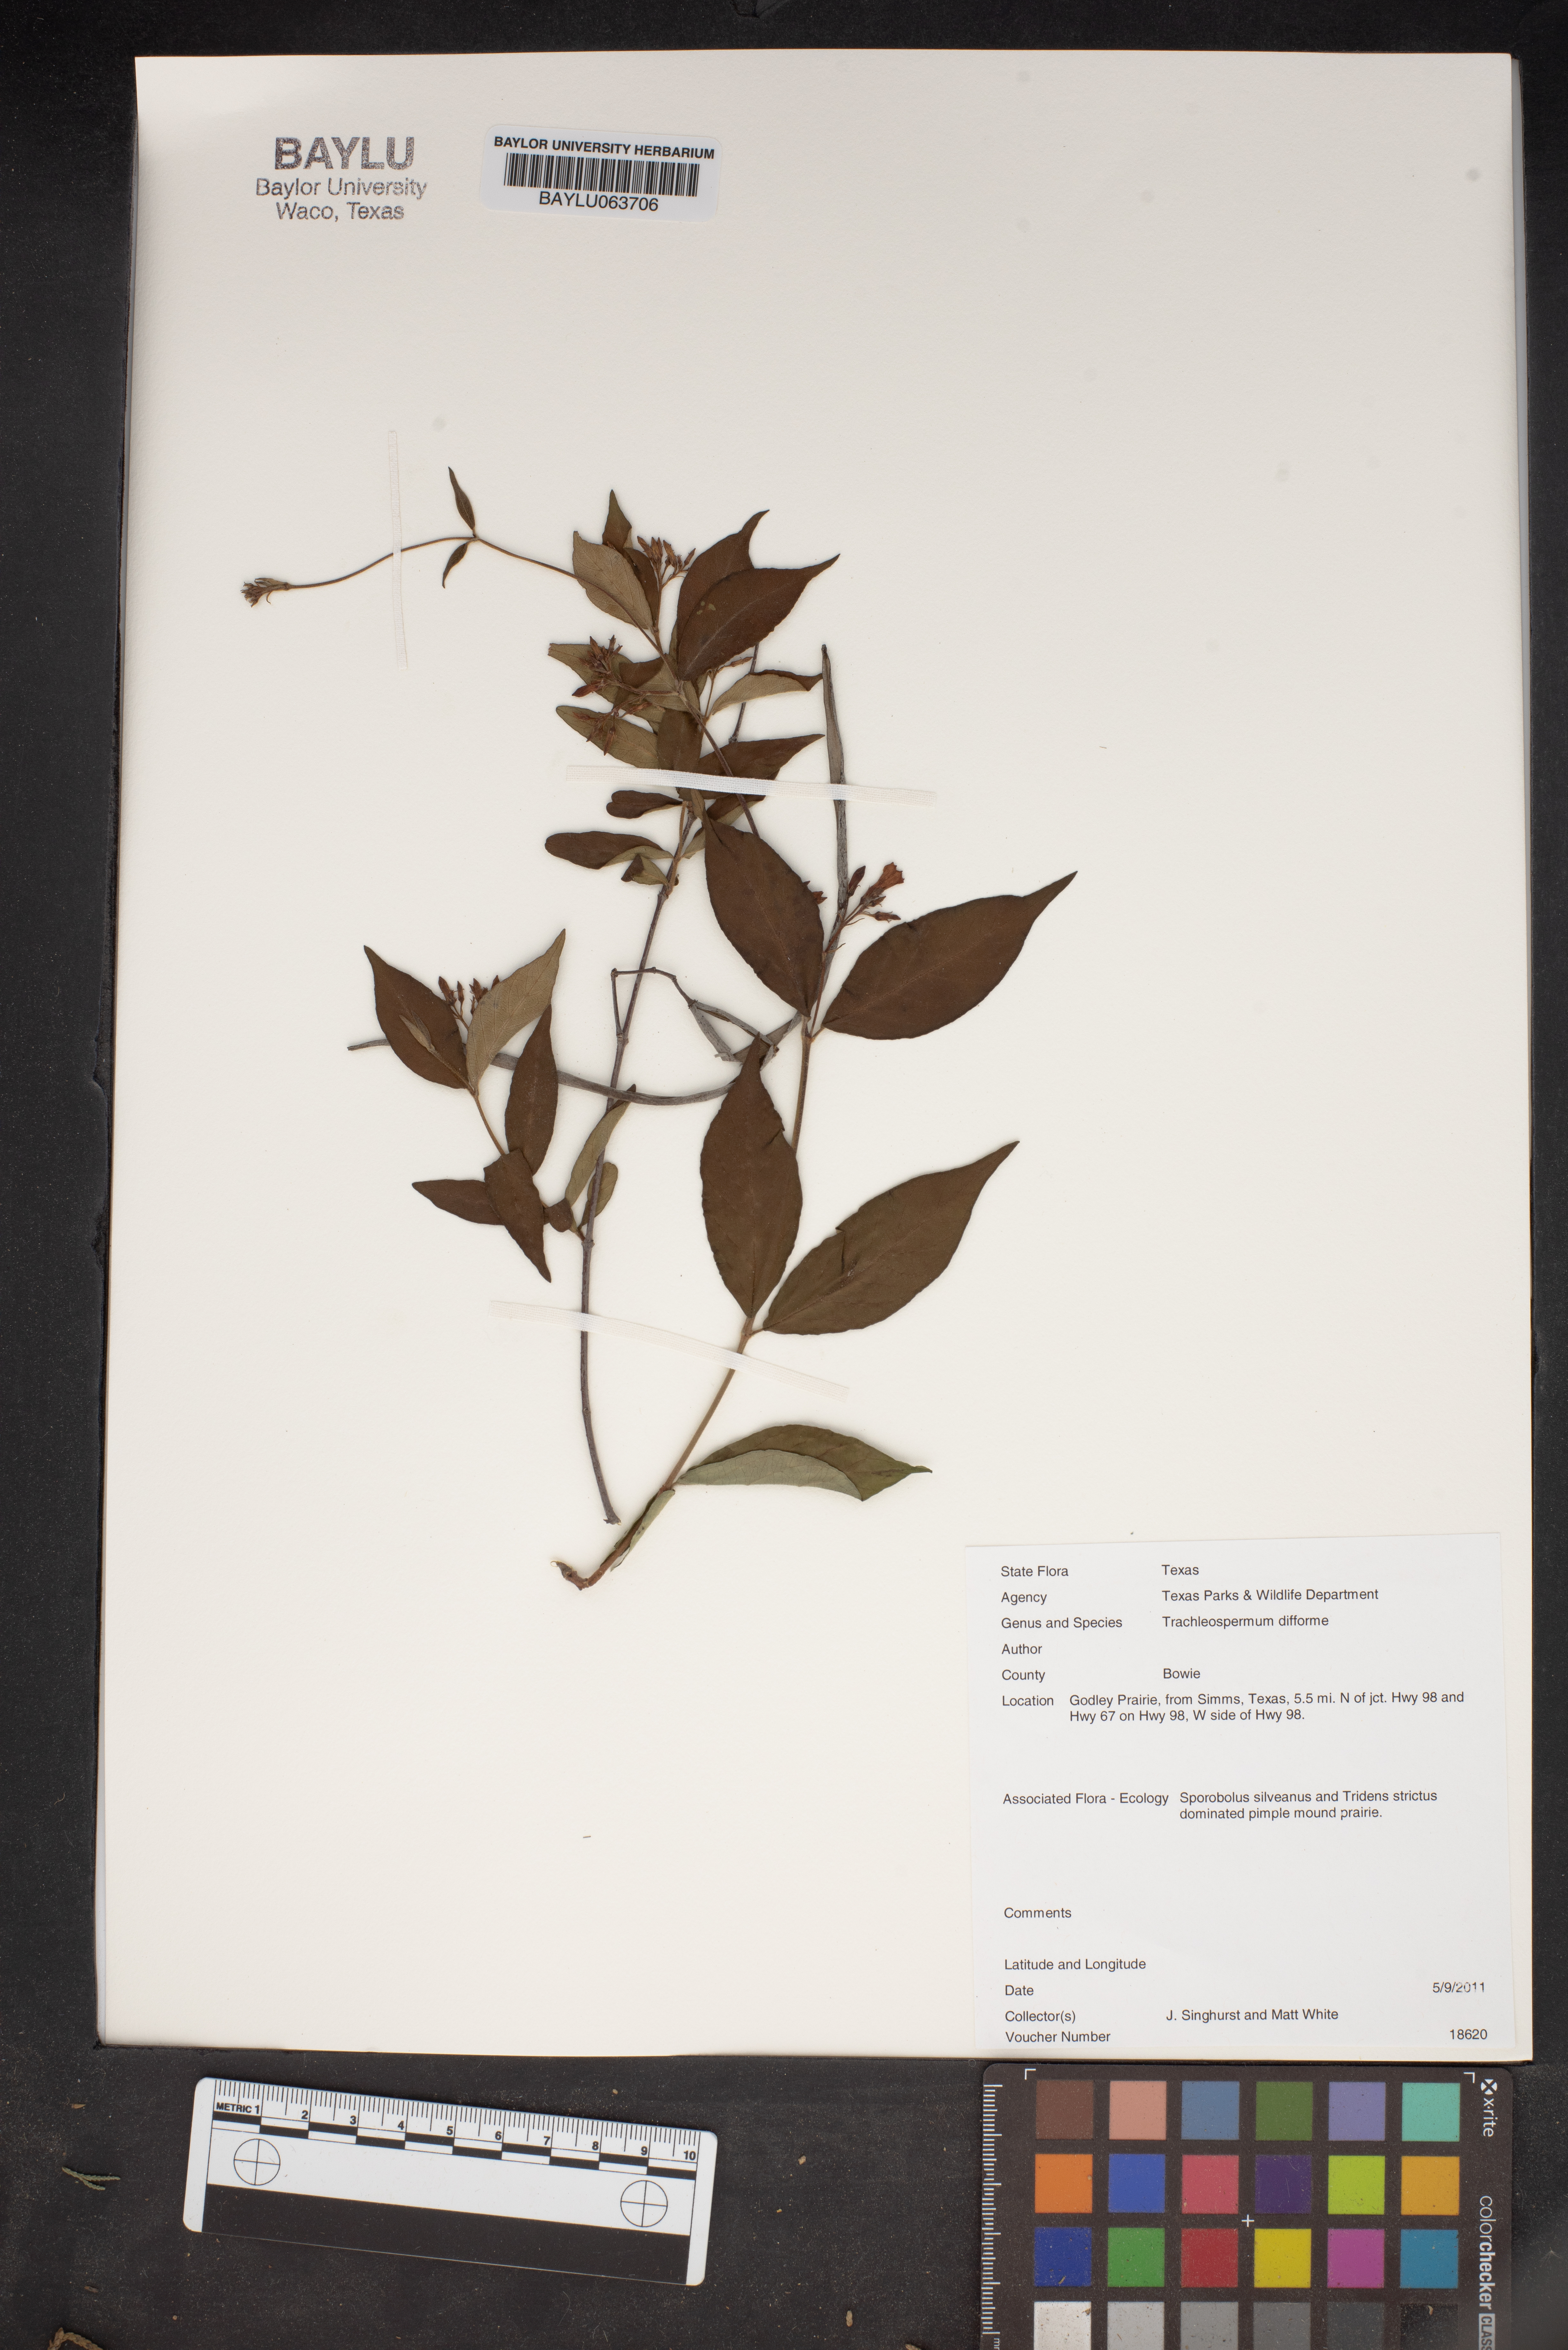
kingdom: Plantae
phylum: Tracheophyta
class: Magnoliopsida
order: Gentianales
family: Apocynaceae
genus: Thyrsanthella
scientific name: Thyrsanthella difformis
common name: Climbing dogbane
